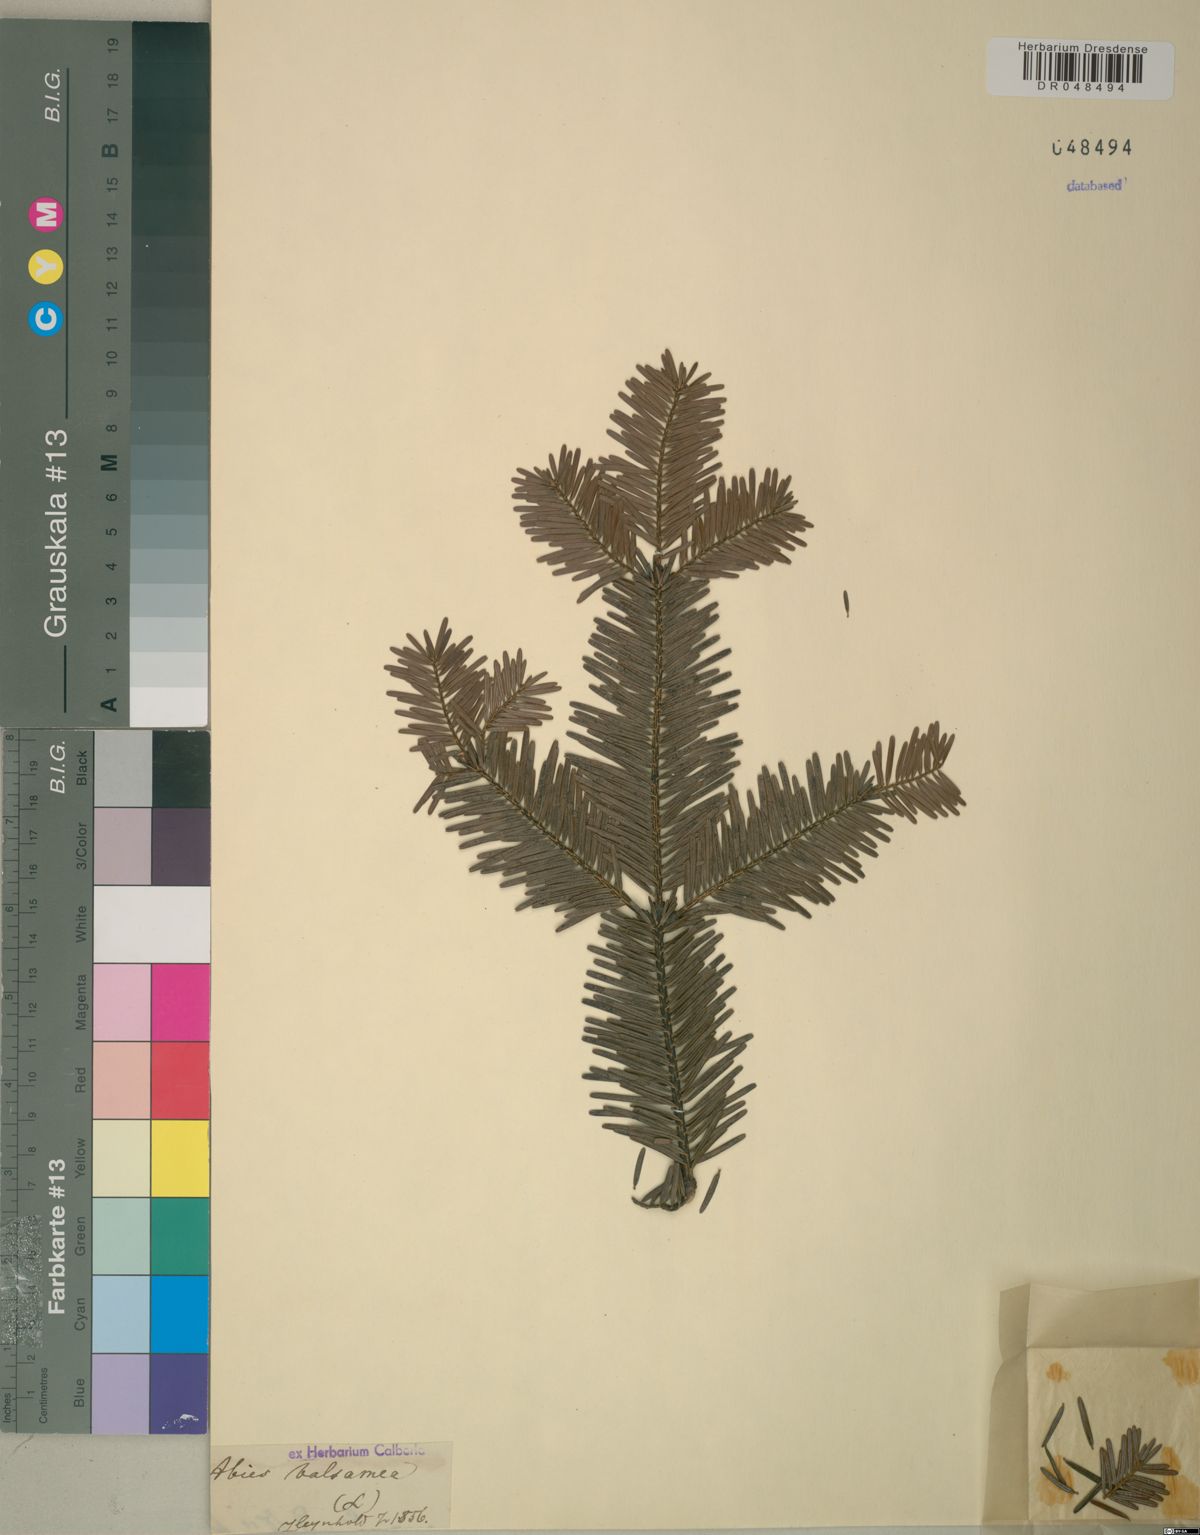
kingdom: Plantae
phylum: Tracheophyta
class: Pinopsida
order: Pinales
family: Pinaceae
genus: Abies
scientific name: Abies balsamea
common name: Balsam fir
